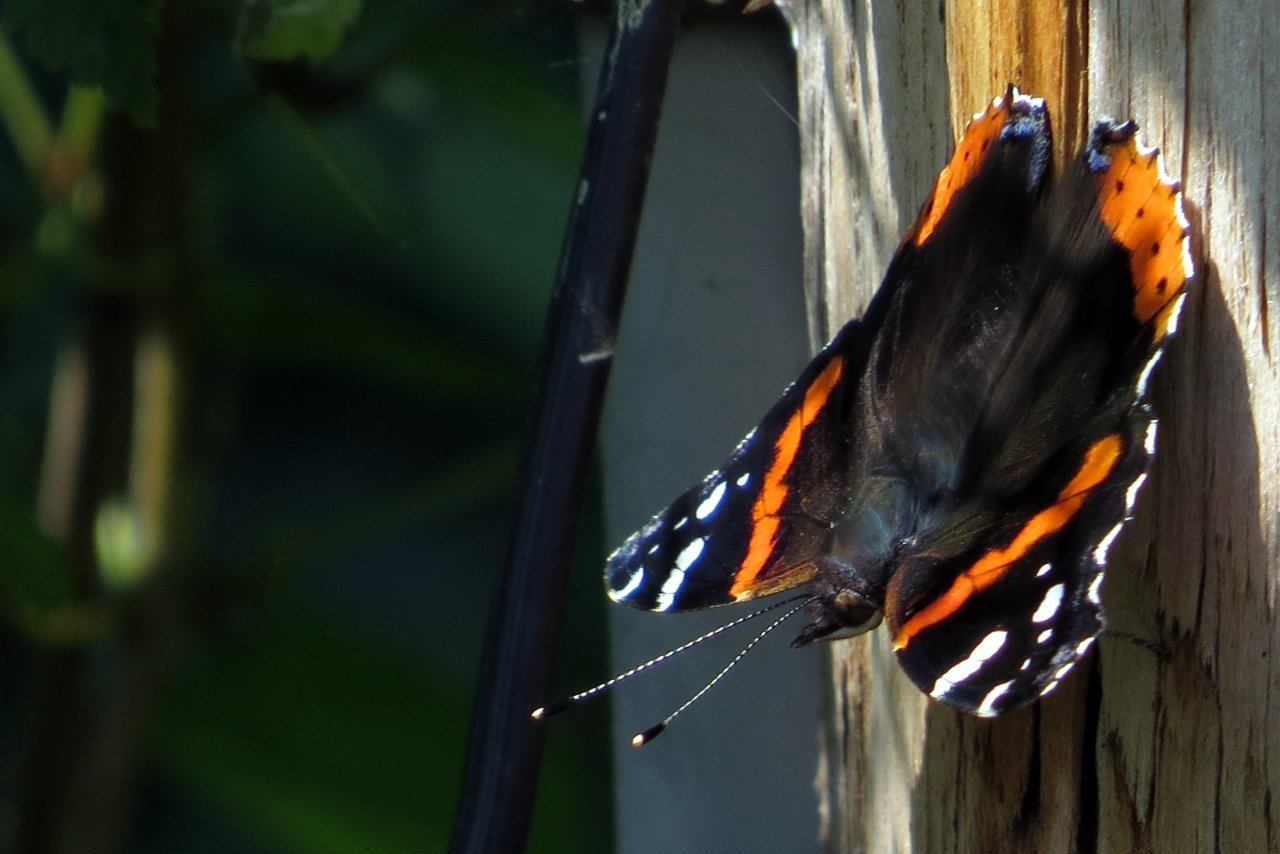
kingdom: Animalia
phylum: Arthropoda
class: Insecta
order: Lepidoptera
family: Nymphalidae
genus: Vanessa
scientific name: Vanessa atalanta
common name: Red Admiral
